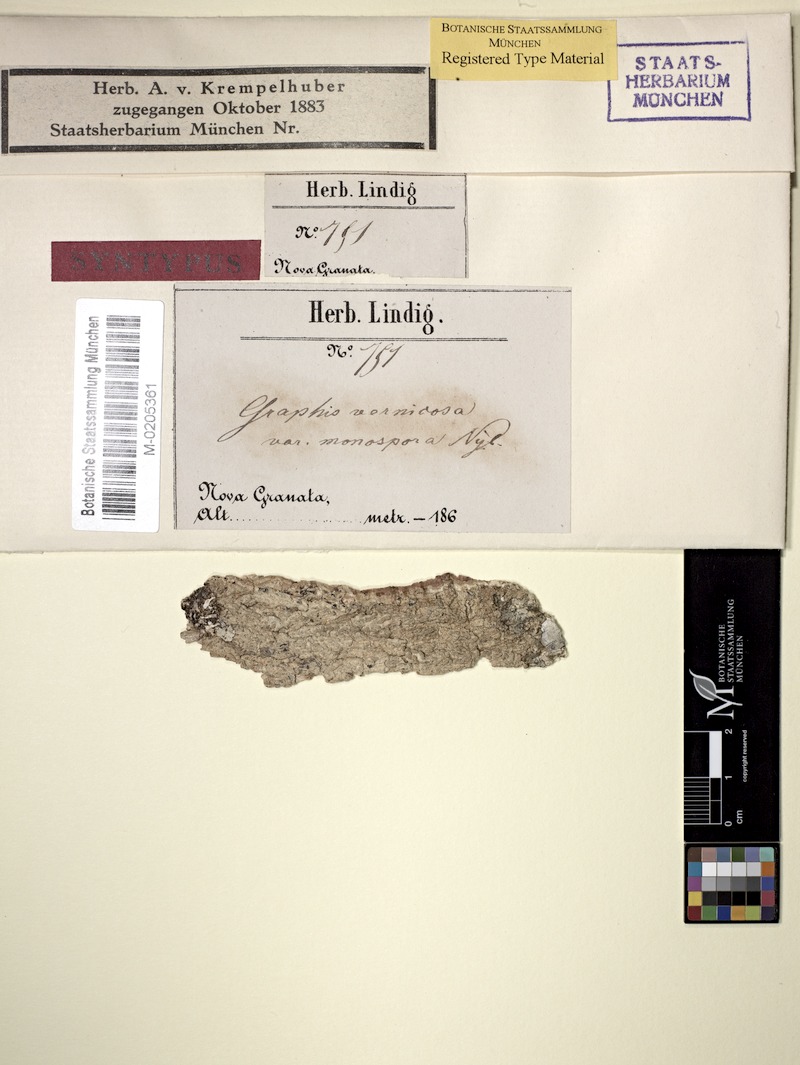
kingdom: Fungi
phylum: Ascomycota
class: Lecanoromycetes
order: Ostropales
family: Graphidaceae
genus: Allographa
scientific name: Allographa vernicosa
